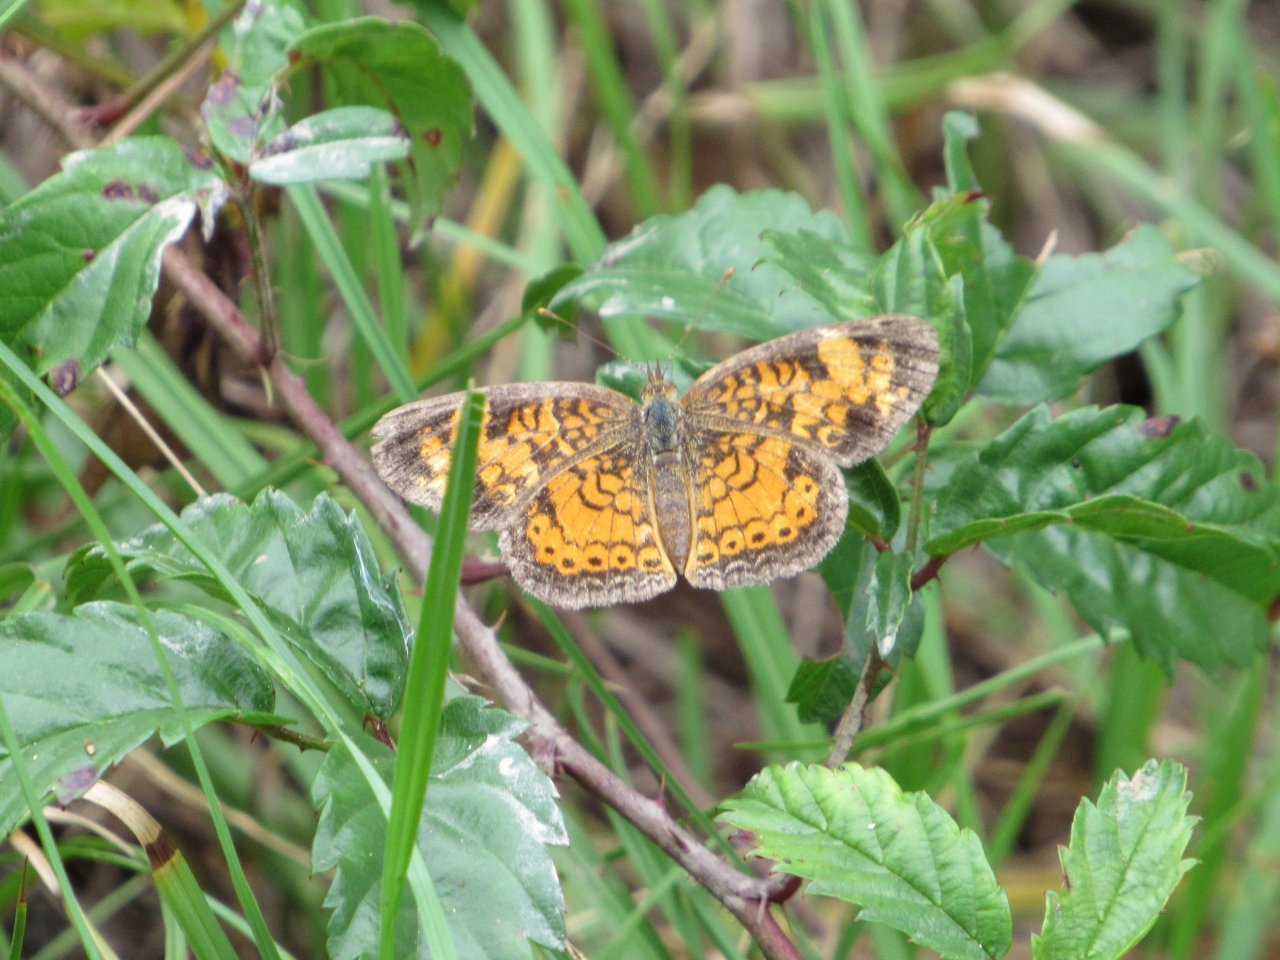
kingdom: Animalia
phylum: Arthropoda
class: Insecta
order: Lepidoptera
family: Nymphalidae
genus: Phyciodes
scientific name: Phyciodes tharos
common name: Pearl Crescent
